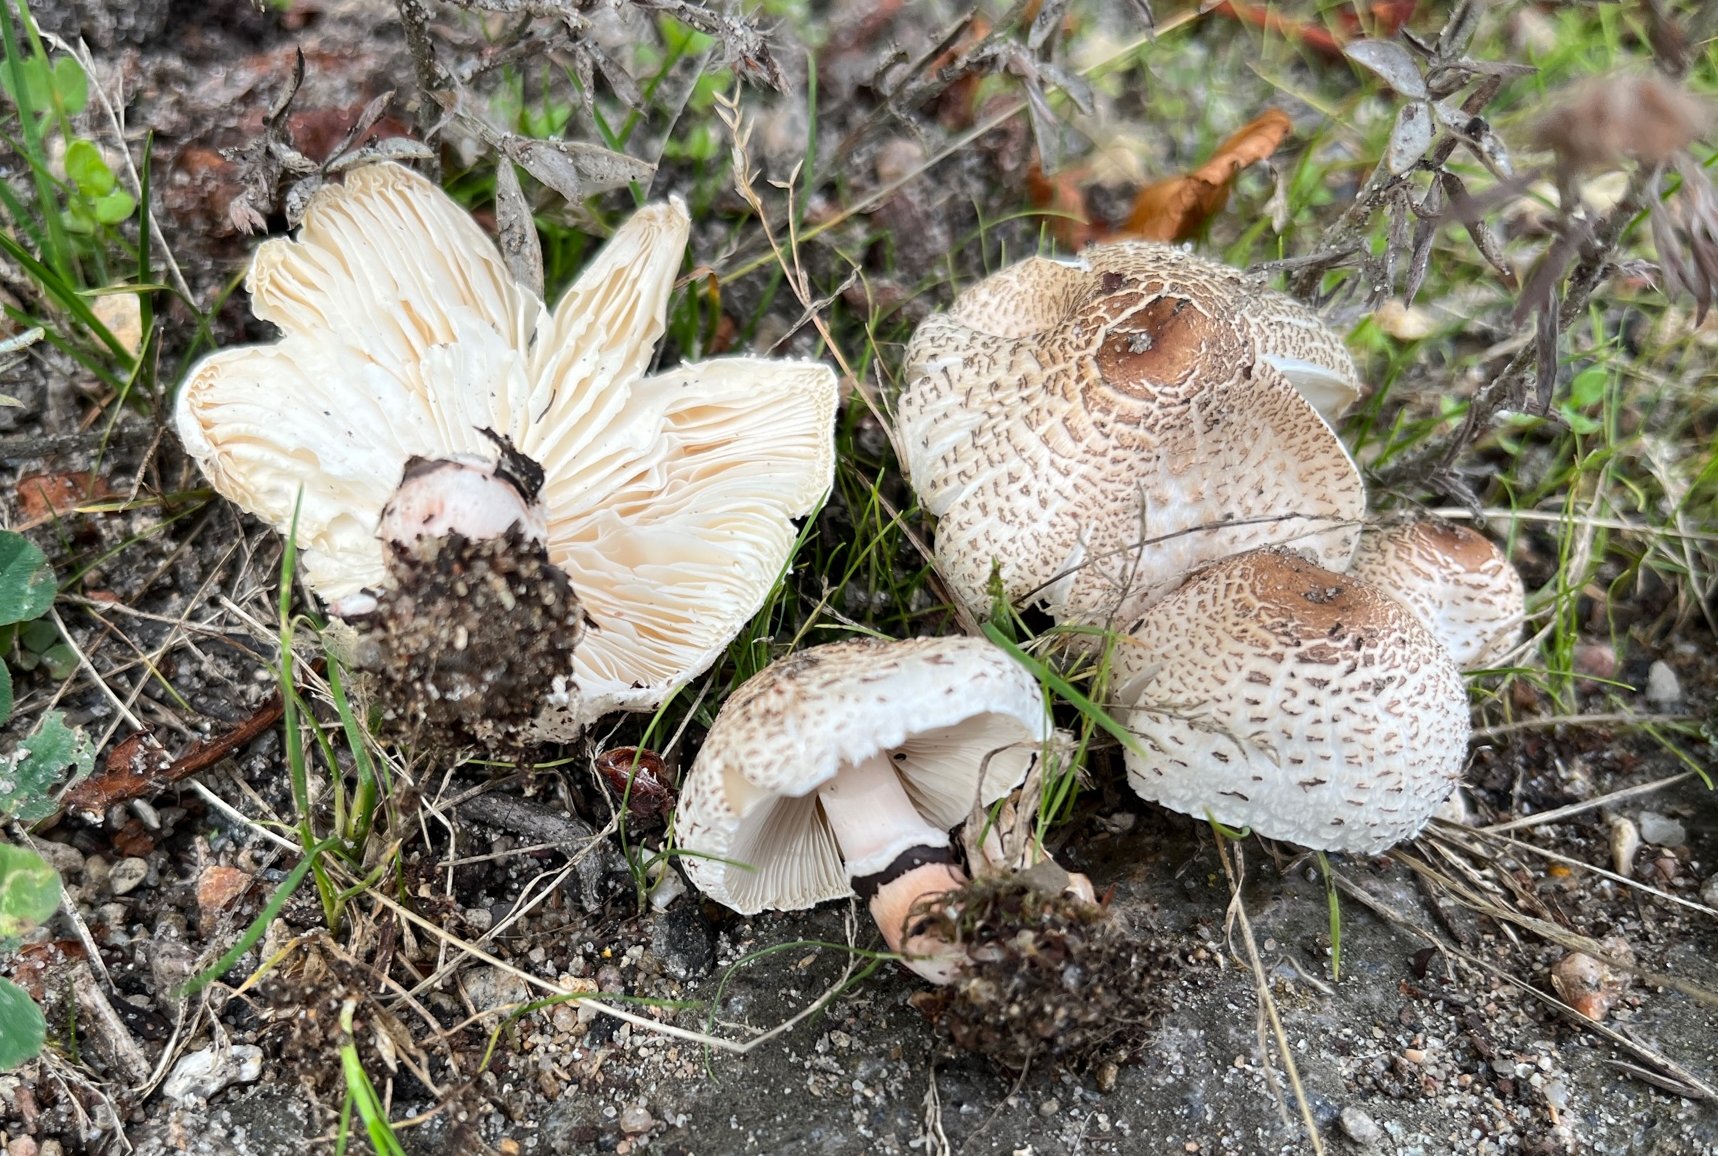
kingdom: Fungi
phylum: Basidiomycota
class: Agaricomycetes
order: Agaricales
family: Agaricaceae
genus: Lepiota
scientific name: Lepiota lilacea
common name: lillabrun parasolhat
